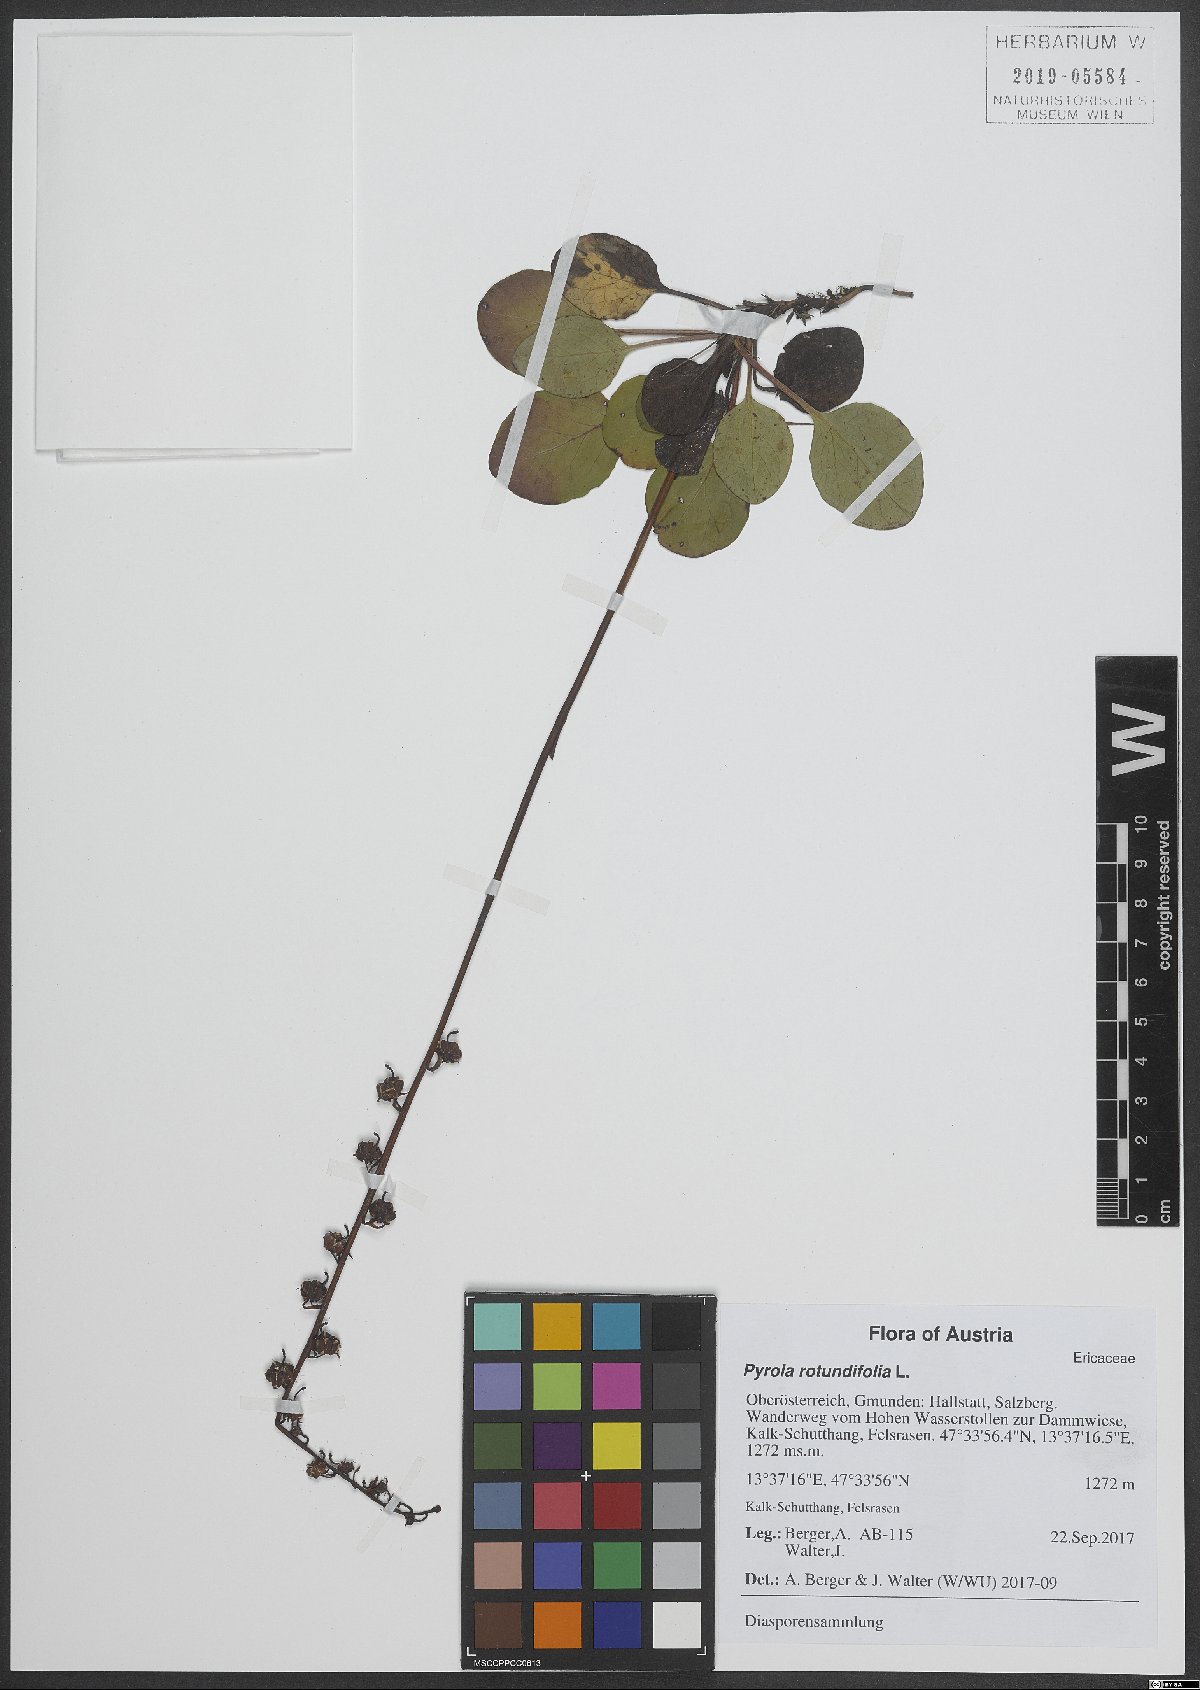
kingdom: Plantae
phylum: Tracheophyta
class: Magnoliopsida
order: Ericales
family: Ericaceae
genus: Pyrola
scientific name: Pyrola rotundifolia
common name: Round-leaved wintergreen
